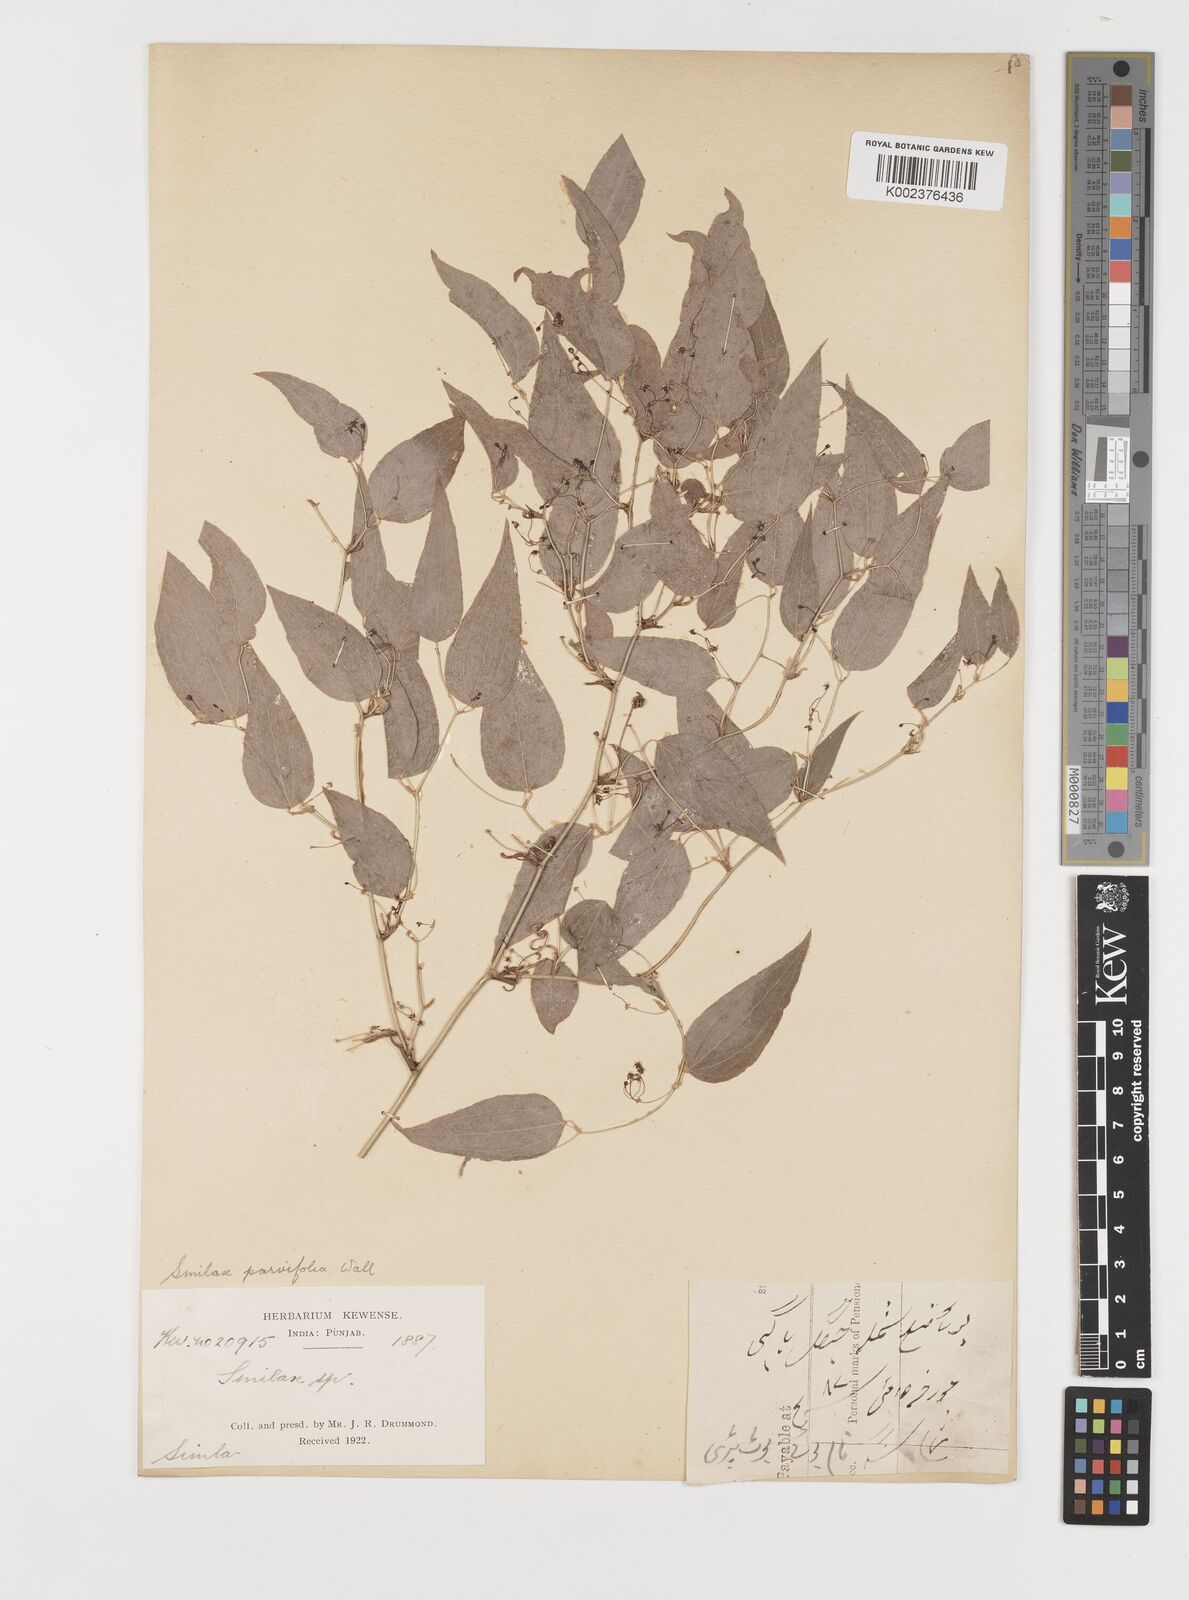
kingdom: Plantae
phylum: Tracheophyta
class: Liliopsida
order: Liliales
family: Smilacaceae
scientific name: Smilacaceae
